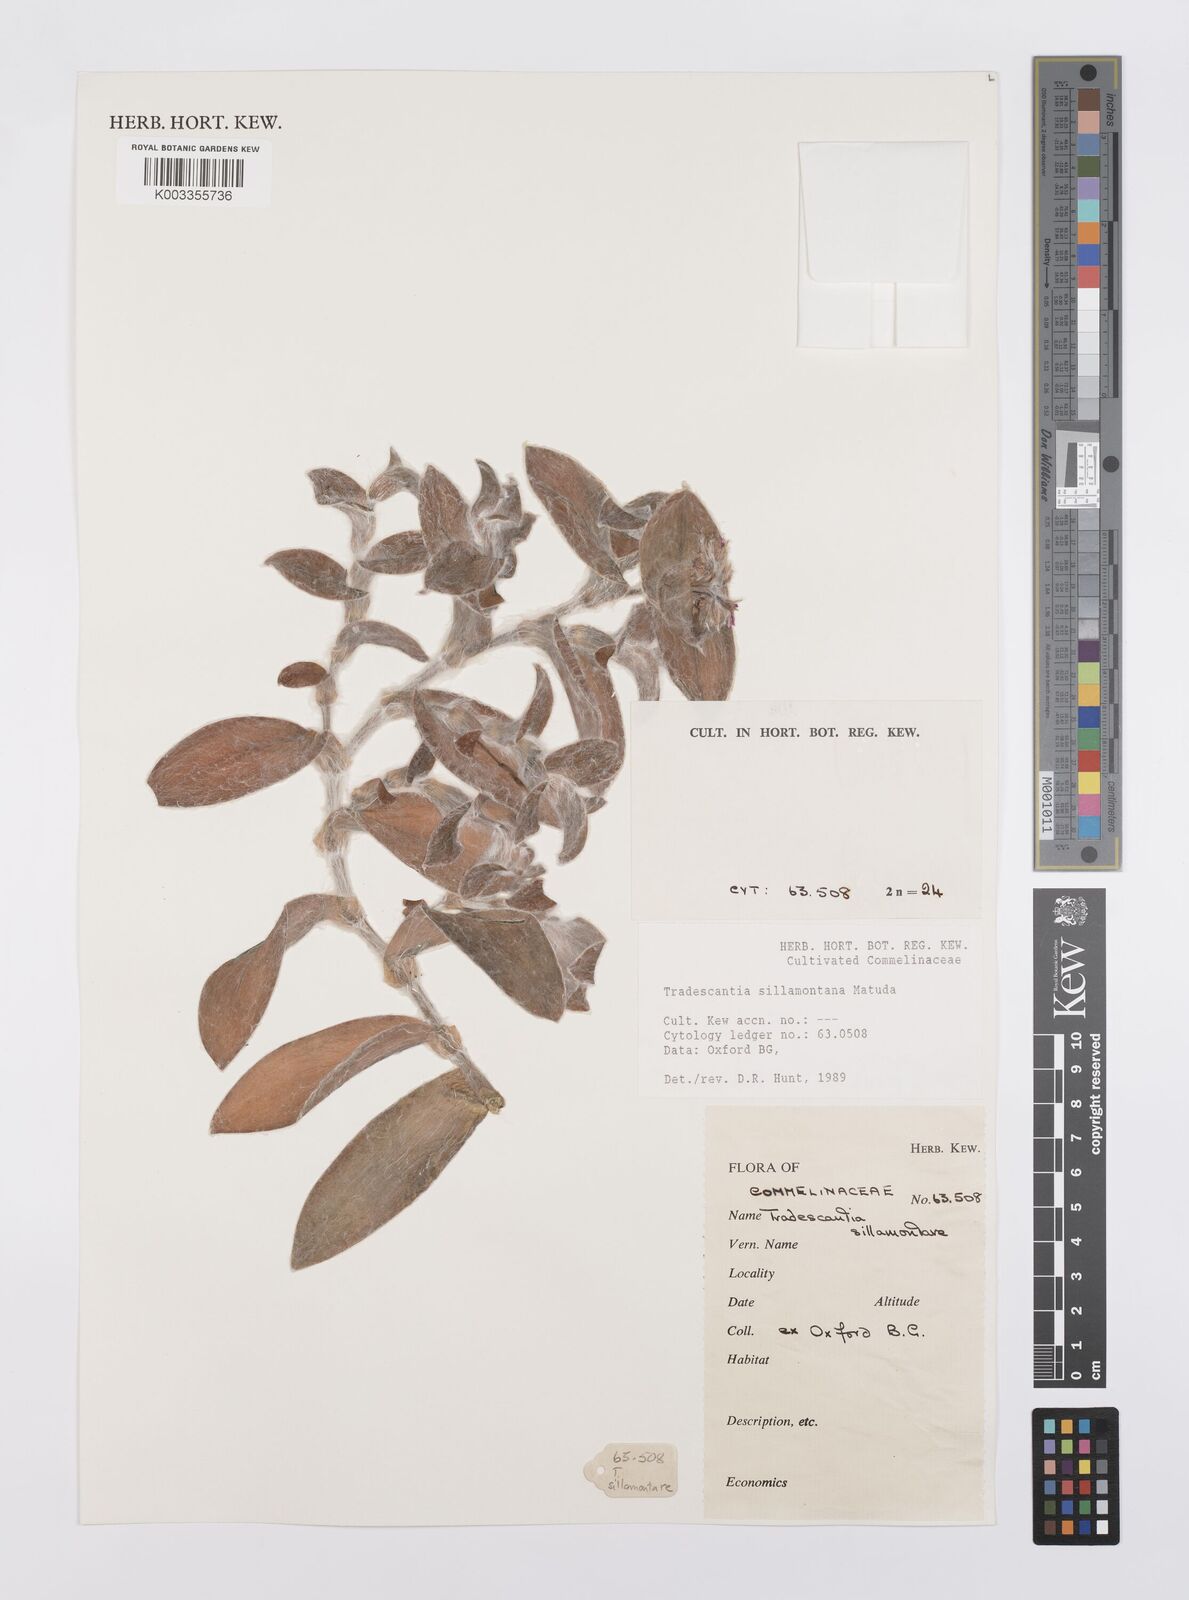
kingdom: Plantae
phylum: Tracheophyta
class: Liliopsida
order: Commelinales
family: Commelinaceae
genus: Tradescantia
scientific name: Tradescantia sillamontana
